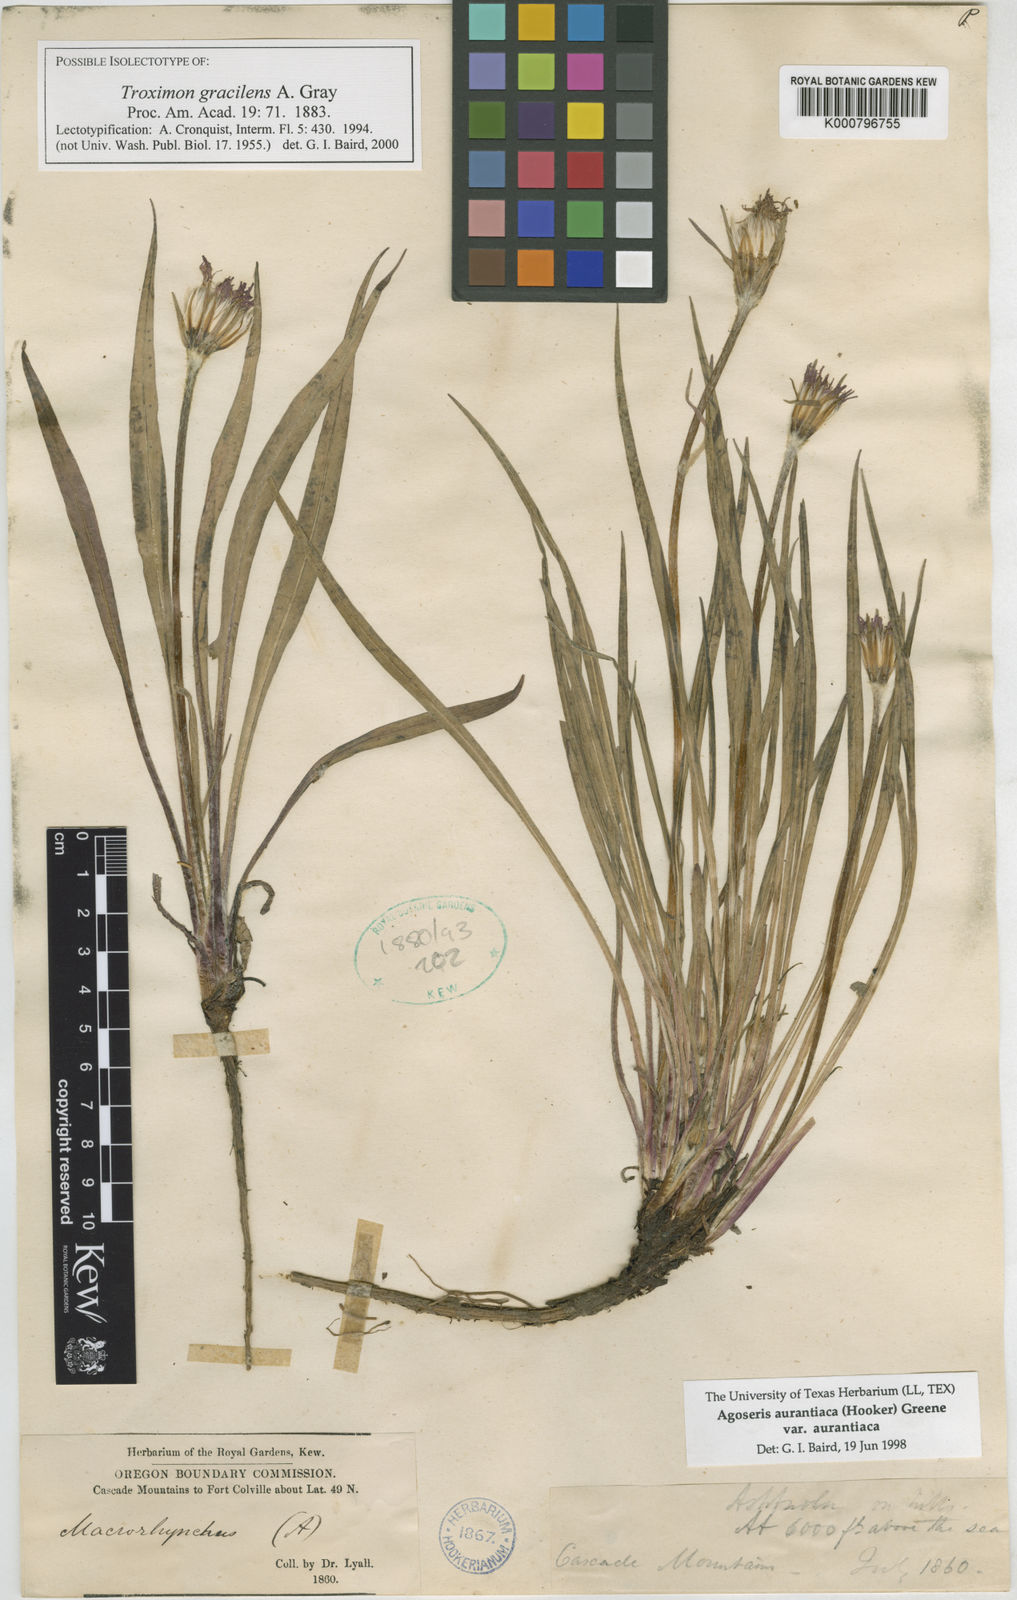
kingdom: Plantae
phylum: Tracheophyta
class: Magnoliopsida
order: Asterales
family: Asteraceae
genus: Agoseris
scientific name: Agoseris aurantiaca
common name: Mountain agoseris
